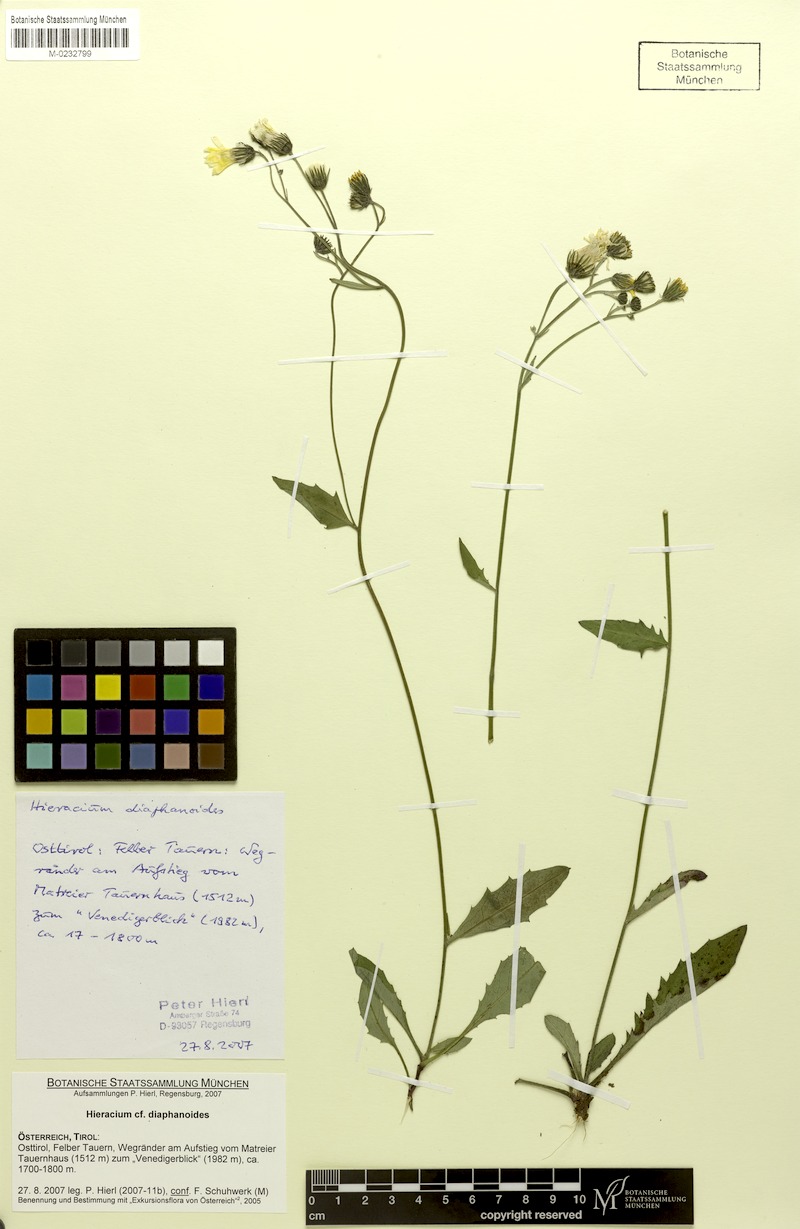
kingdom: Plantae
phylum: Tracheophyta
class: Magnoliopsida
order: Asterales
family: Asteraceae
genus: Hieracium
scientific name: Hieracium diaphanoides
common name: Fine-bracted hawkweed
